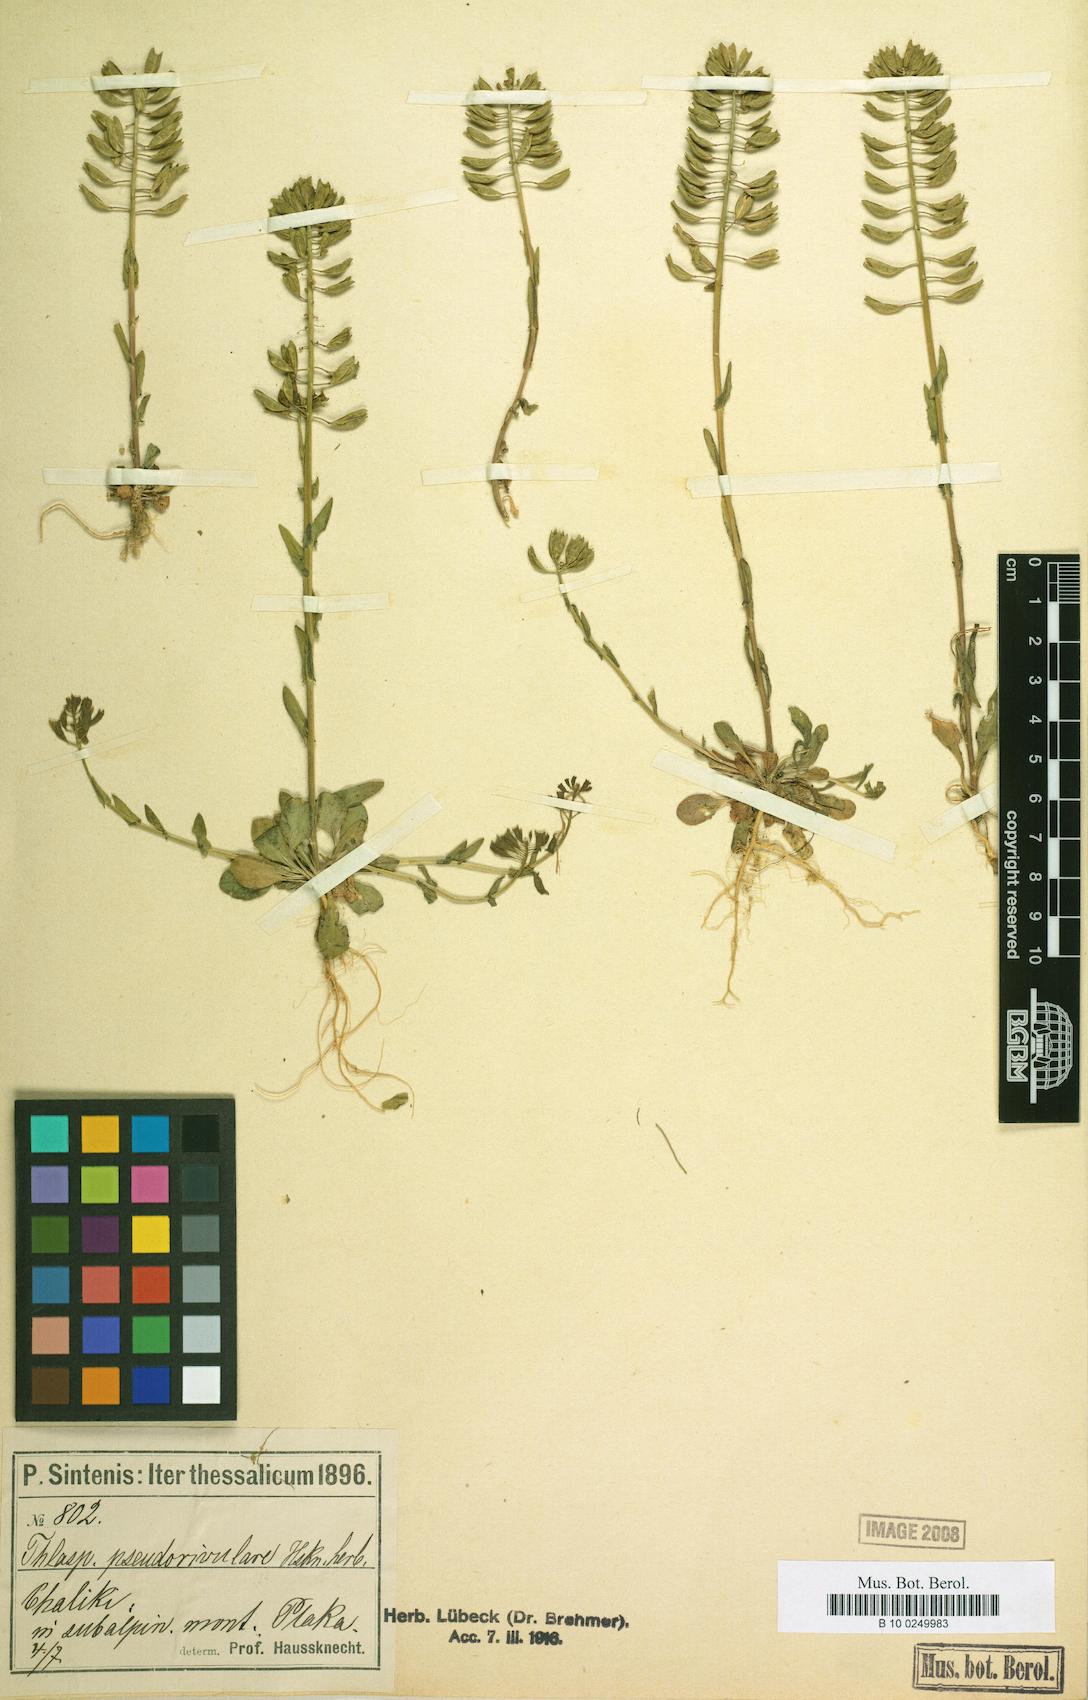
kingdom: Plantae
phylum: Tracheophyta
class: Magnoliopsida
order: Brassicales
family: Brassicaceae
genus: Noccaea
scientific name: Noccaea brevistyla
